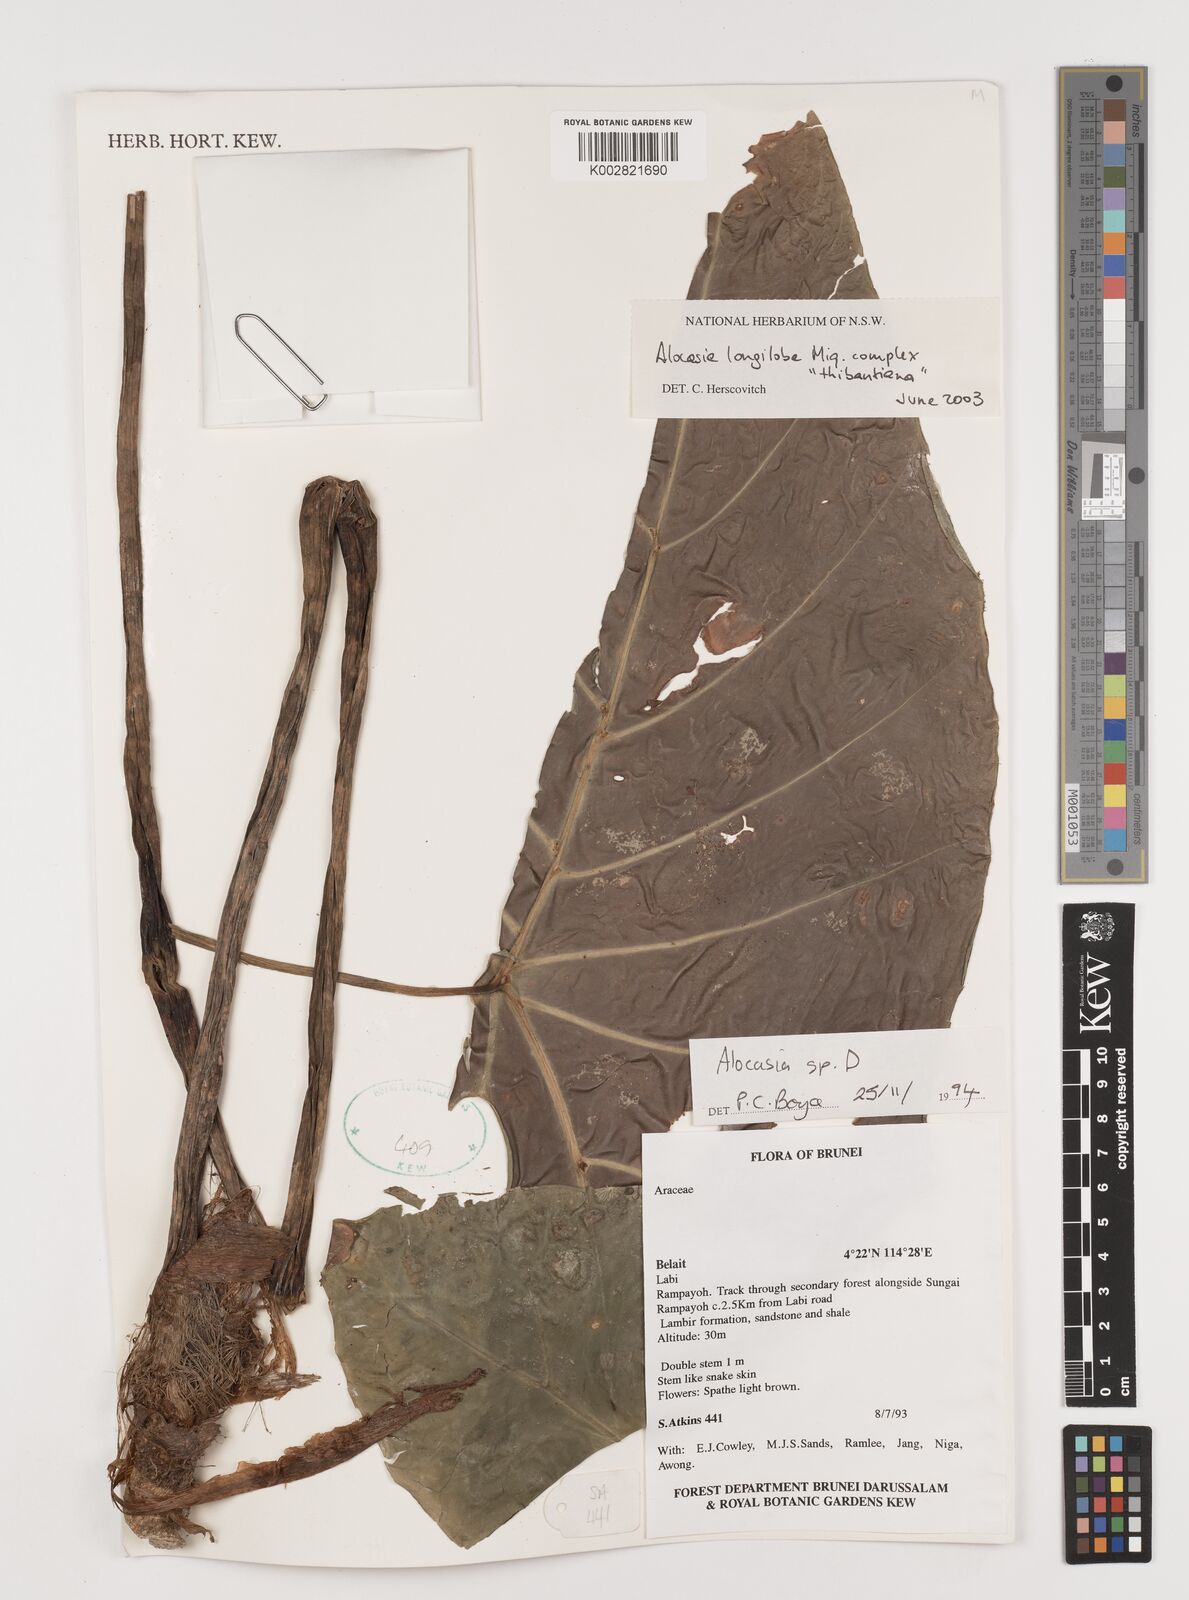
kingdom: Plantae
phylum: Tracheophyta
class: Liliopsida
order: Alismatales
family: Araceae
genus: Alocasia
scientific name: Alocasia longiloba
